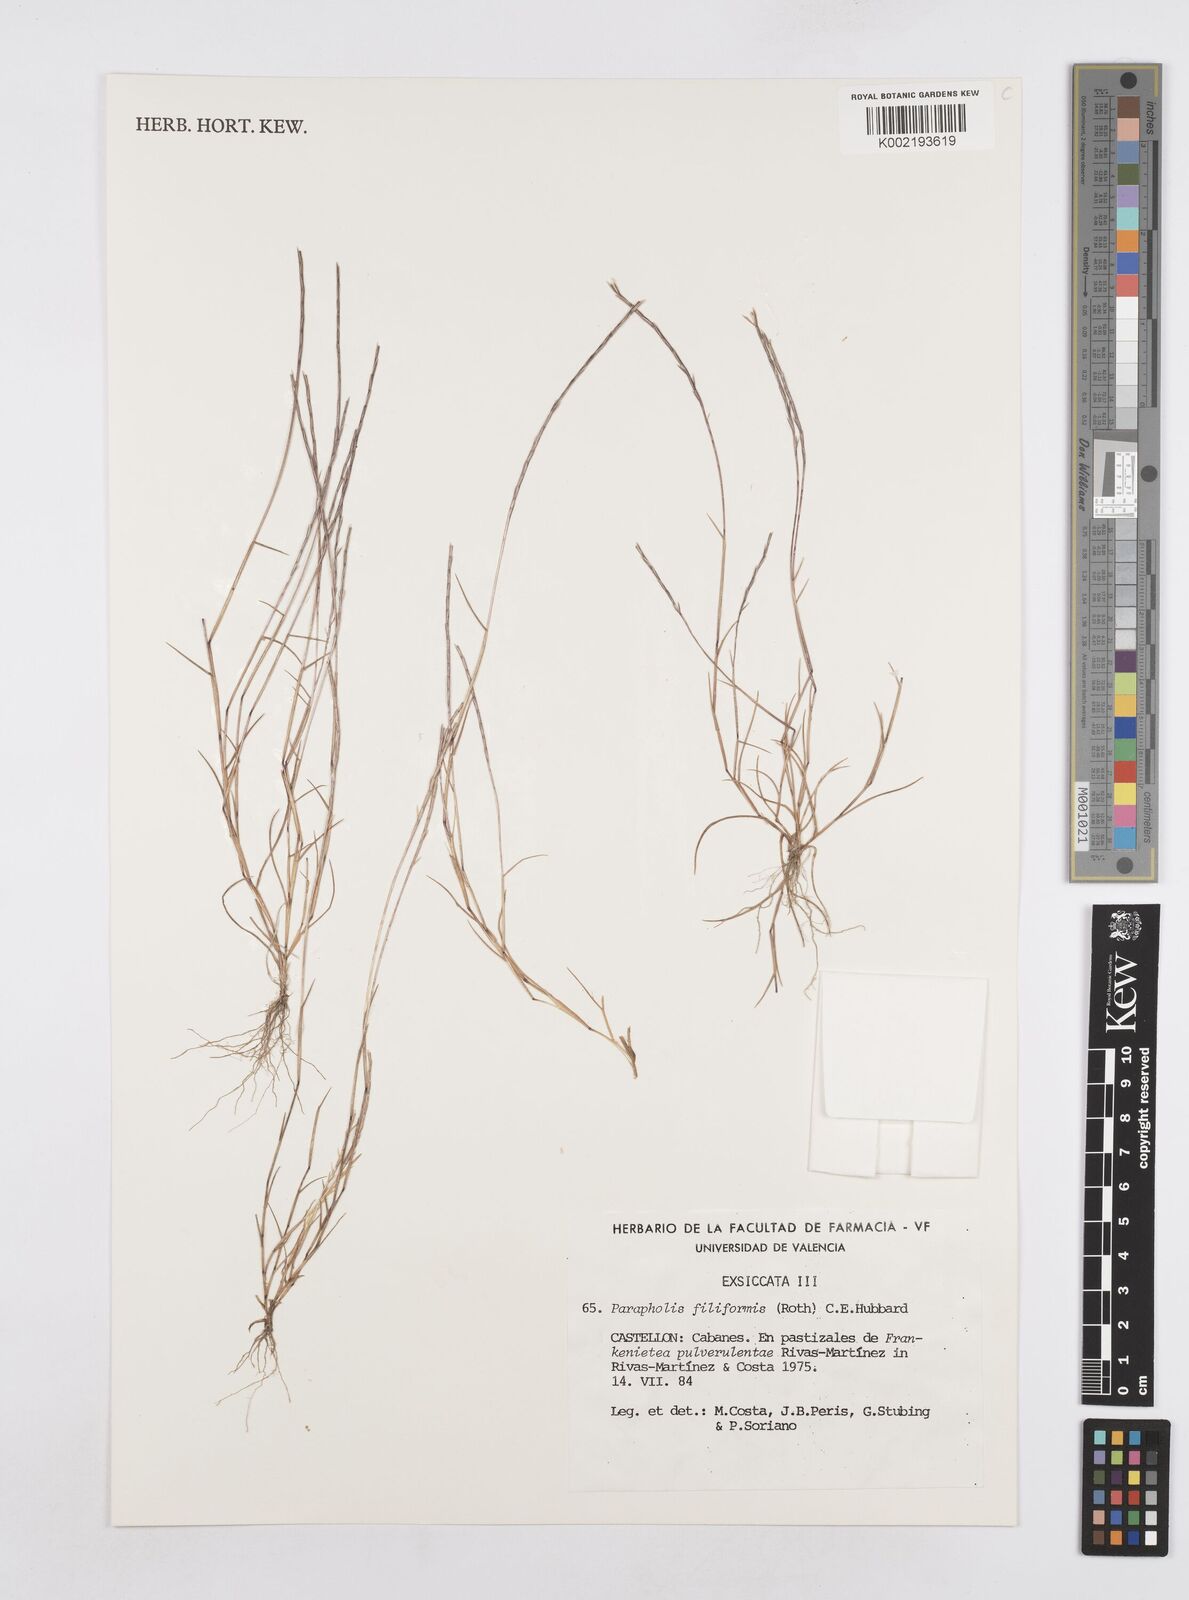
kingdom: Plantae
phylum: Tracheophyta
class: Liliopsida
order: Poales
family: Poaceae
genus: Parapholis
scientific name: Parapholis filiformis
